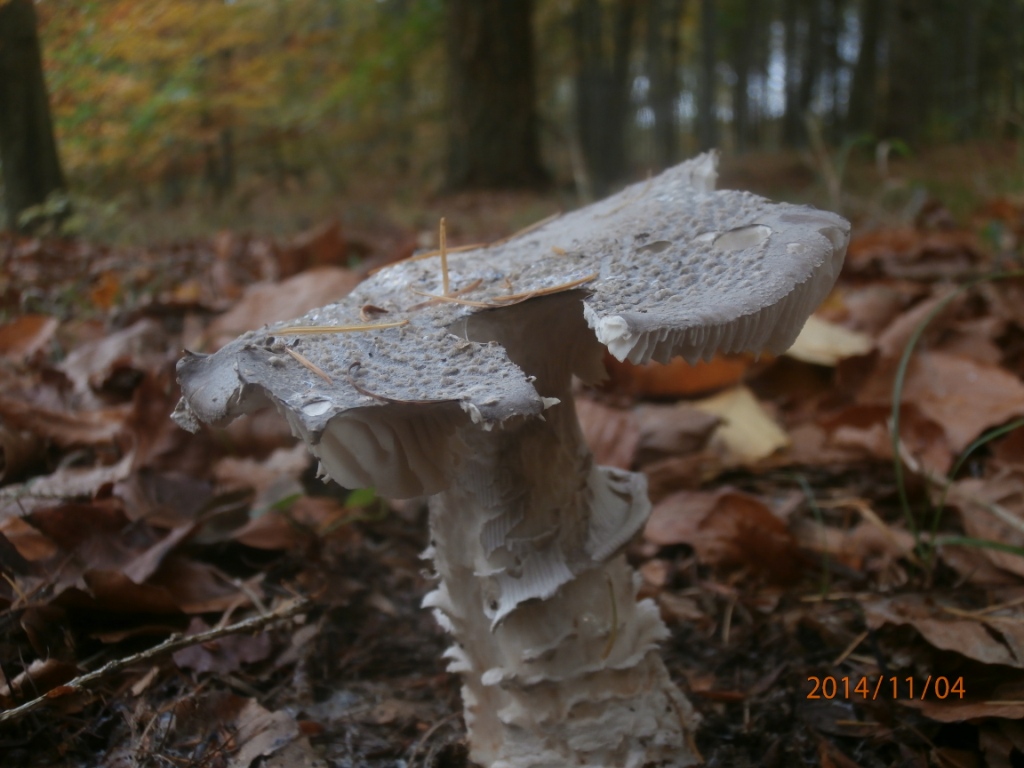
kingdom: Fungi
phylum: Basidiomycota
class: Agaricomycetes
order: Agaricales
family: Amanitaceae
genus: Amanita
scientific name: Amanita
